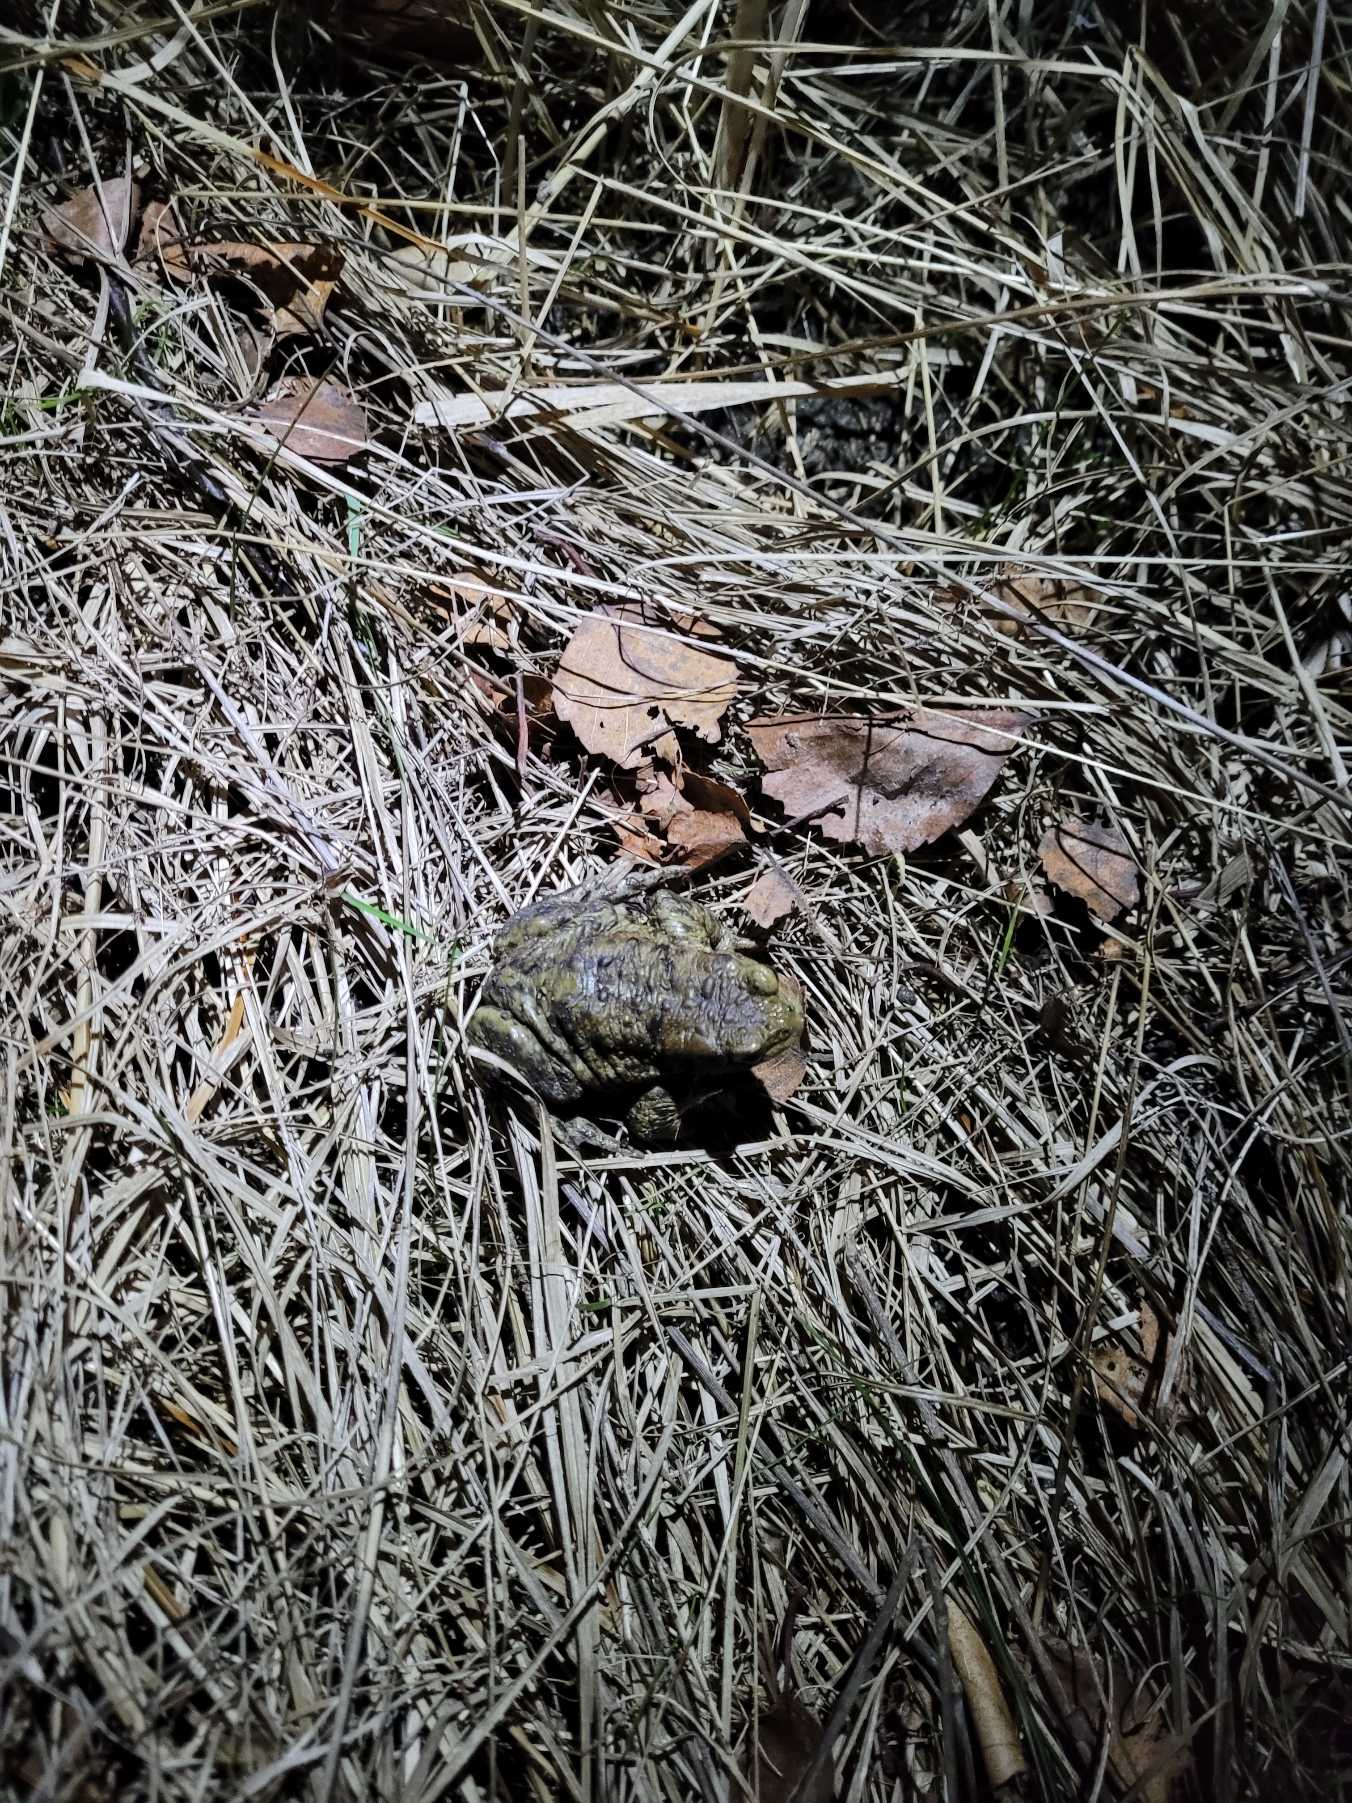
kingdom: Animalia
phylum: Chordata
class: Amphibia
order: Anura
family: Bufonidae
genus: Bufo
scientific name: Bufo bufo
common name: Skrubtudse
